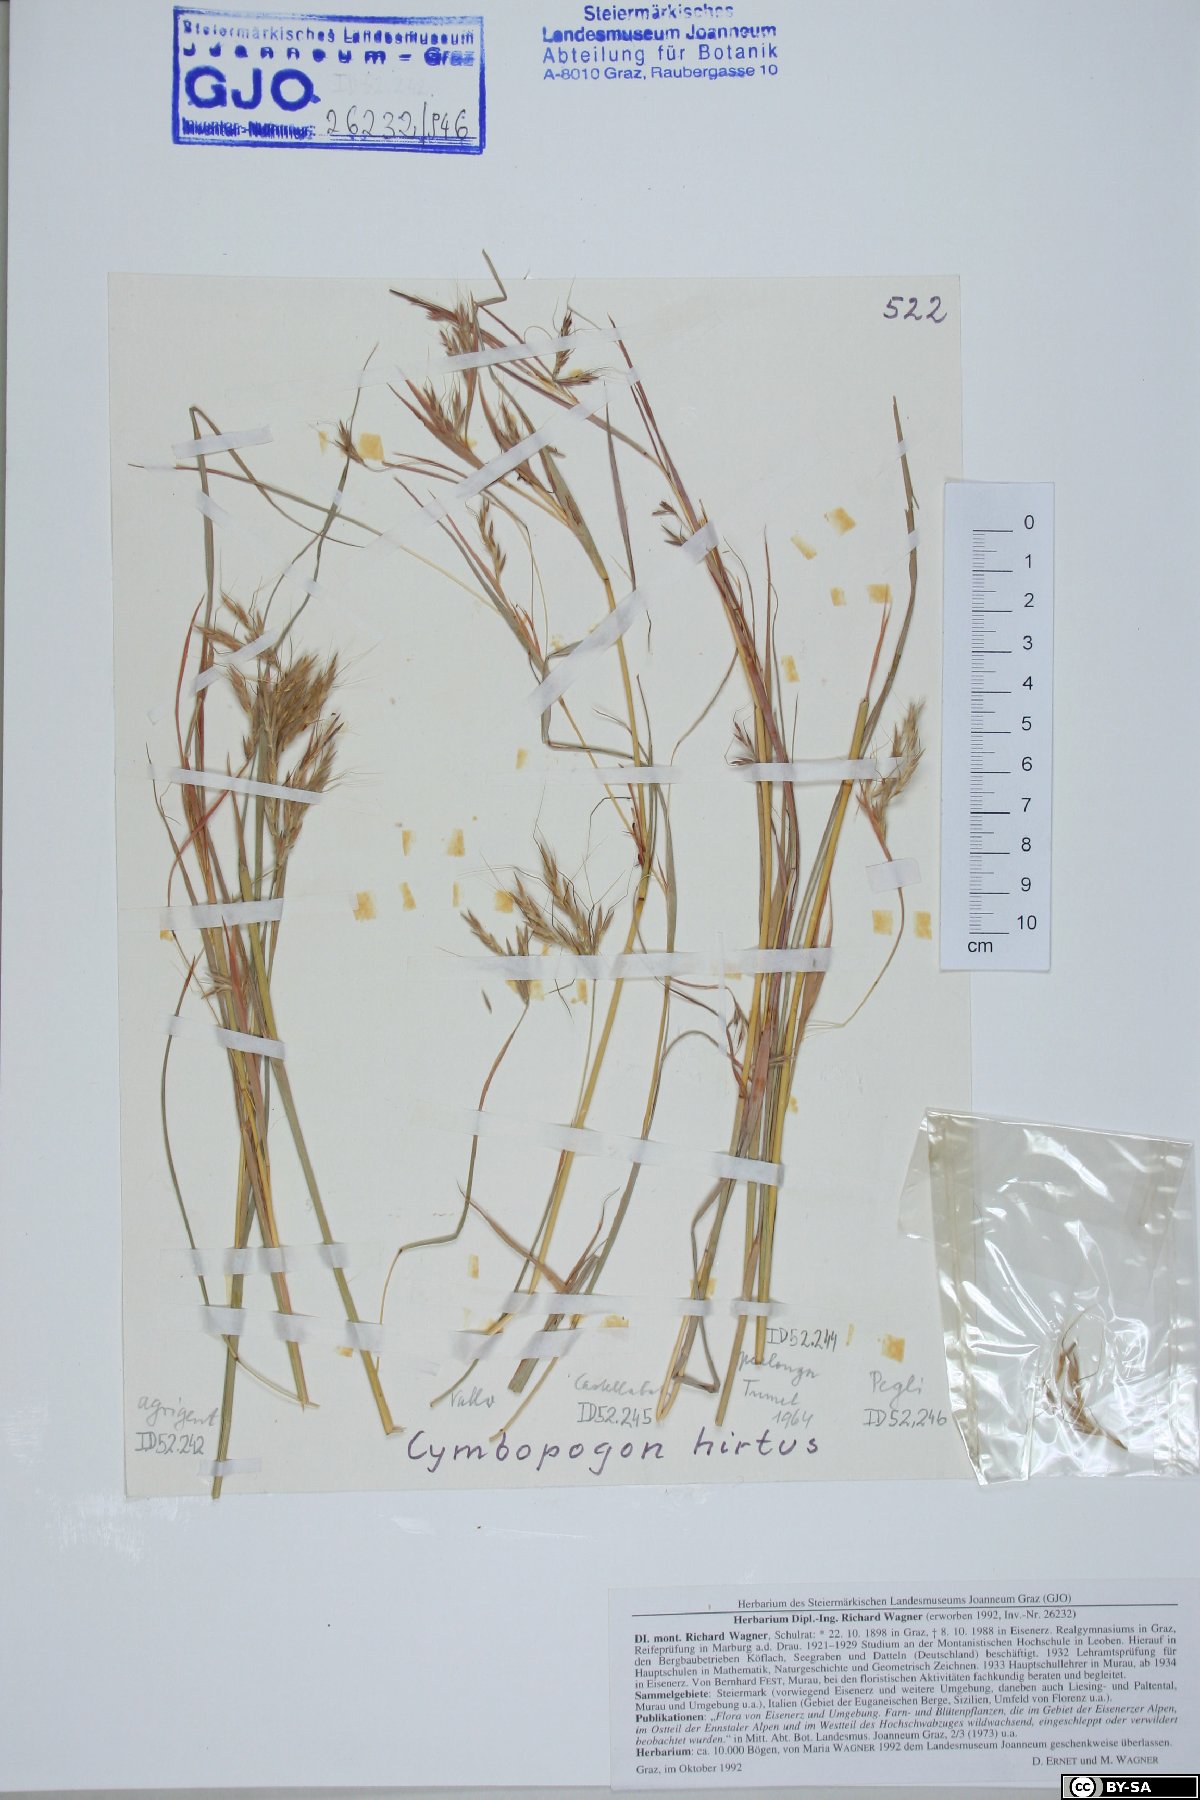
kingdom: Plantae
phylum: Tracheophyta
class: Liliopsida
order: Poales
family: Poaceae
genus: Hyparrhenia
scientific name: Hyparrhenia hirta
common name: Thatching grass
